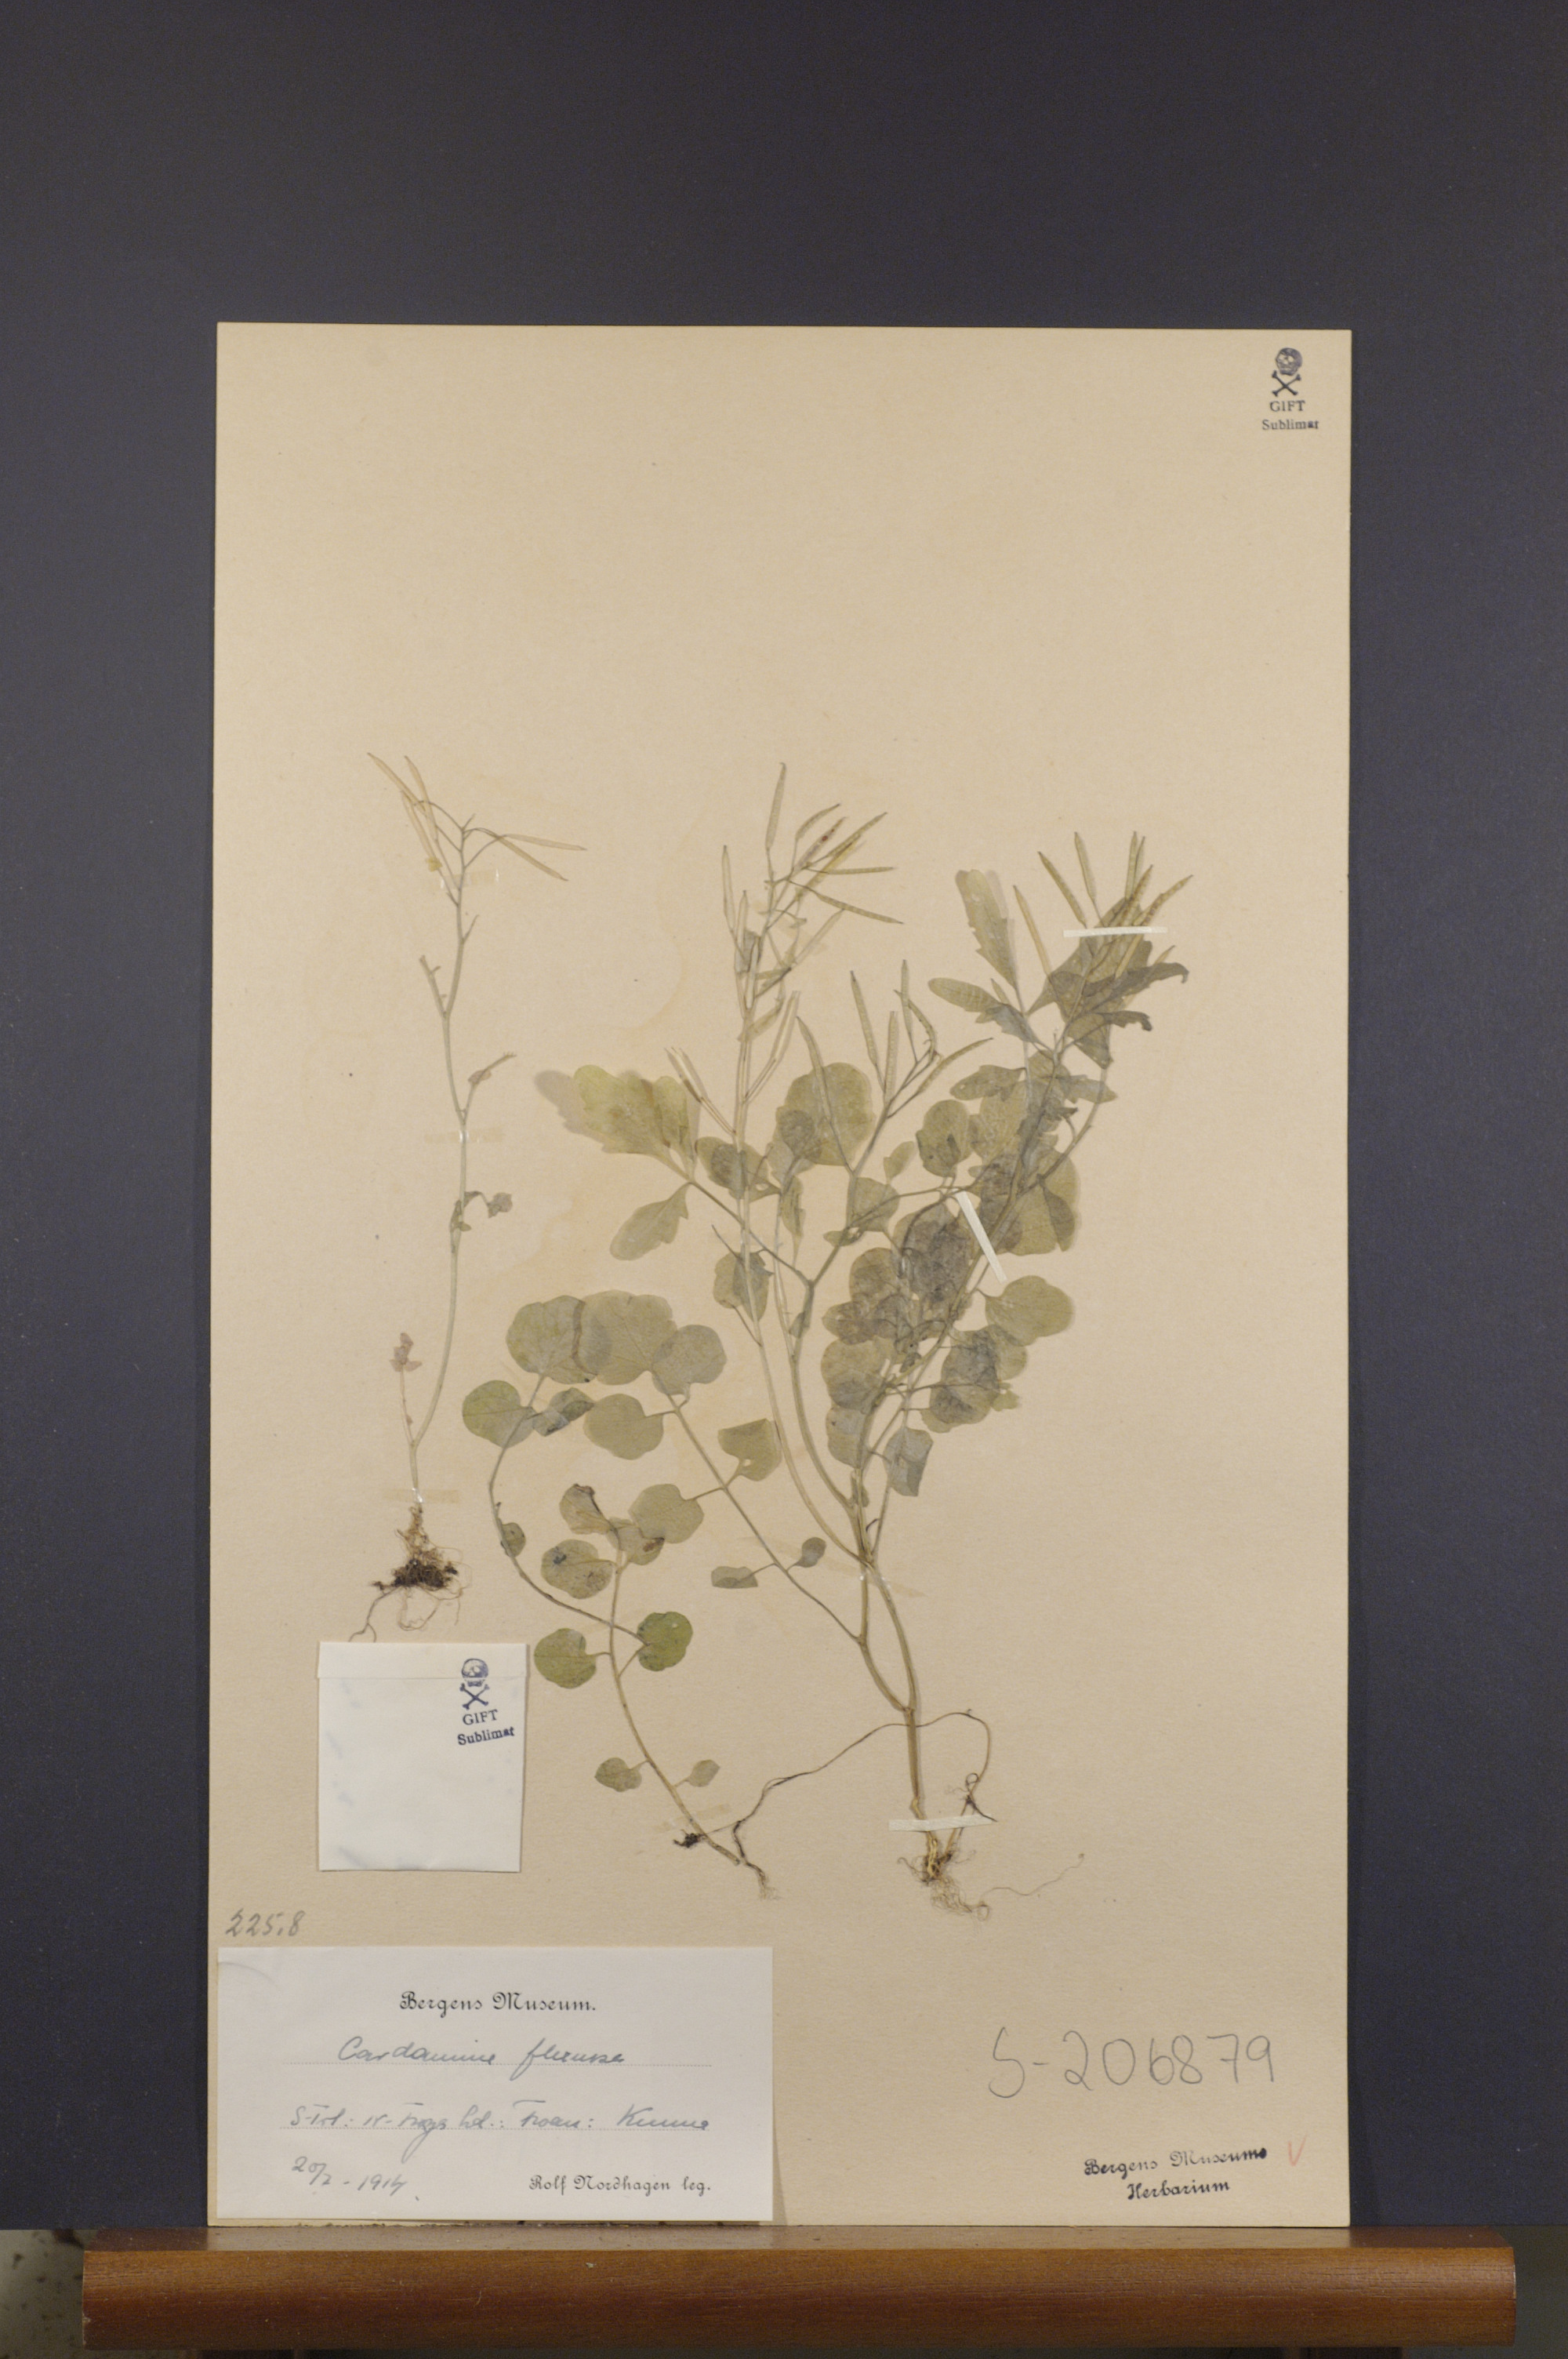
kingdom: Plantae
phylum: Tracheophyta
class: Magnoliopsida
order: Brassicales
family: Brassicaceae
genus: Cardamine
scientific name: Cardamine flexuosa
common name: Woodland bittercress
